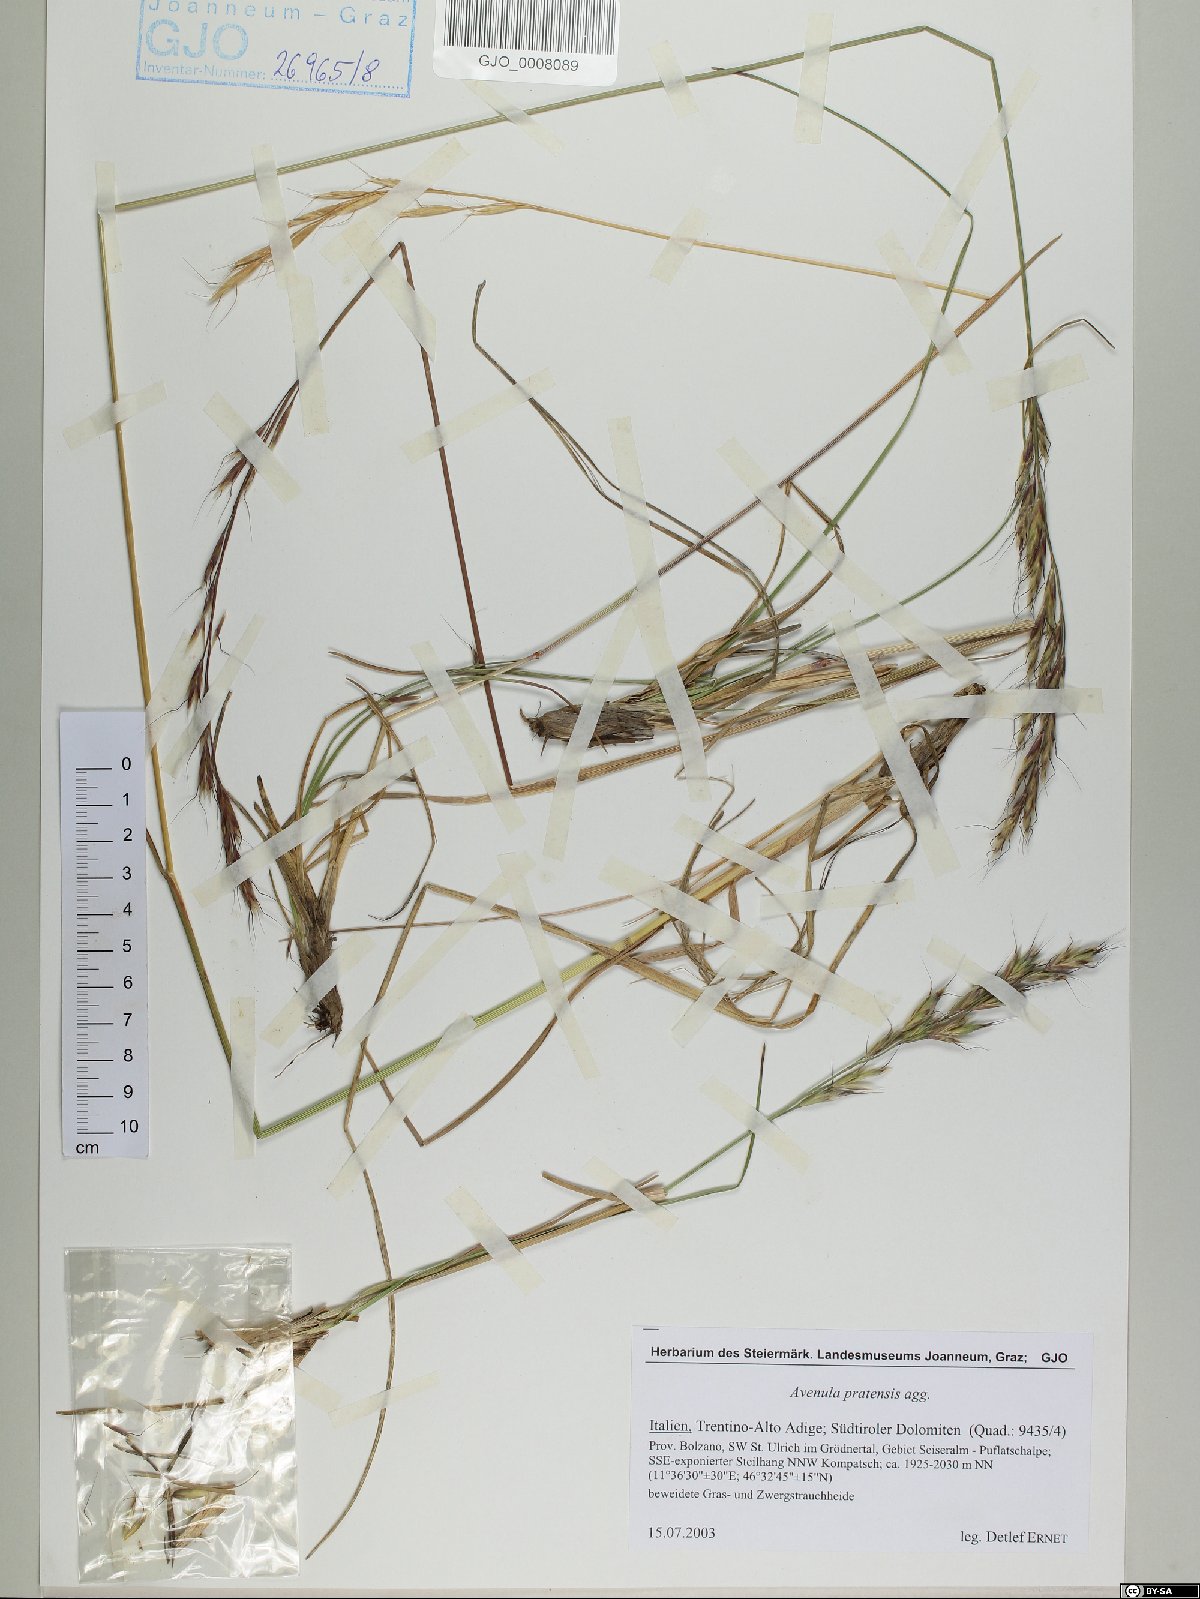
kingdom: Plantae
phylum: Tracheophyta
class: Liliopsida
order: Poales
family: Poaceae
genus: Helictochloa
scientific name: Helictochloa pratensis
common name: Meadow oat grass
